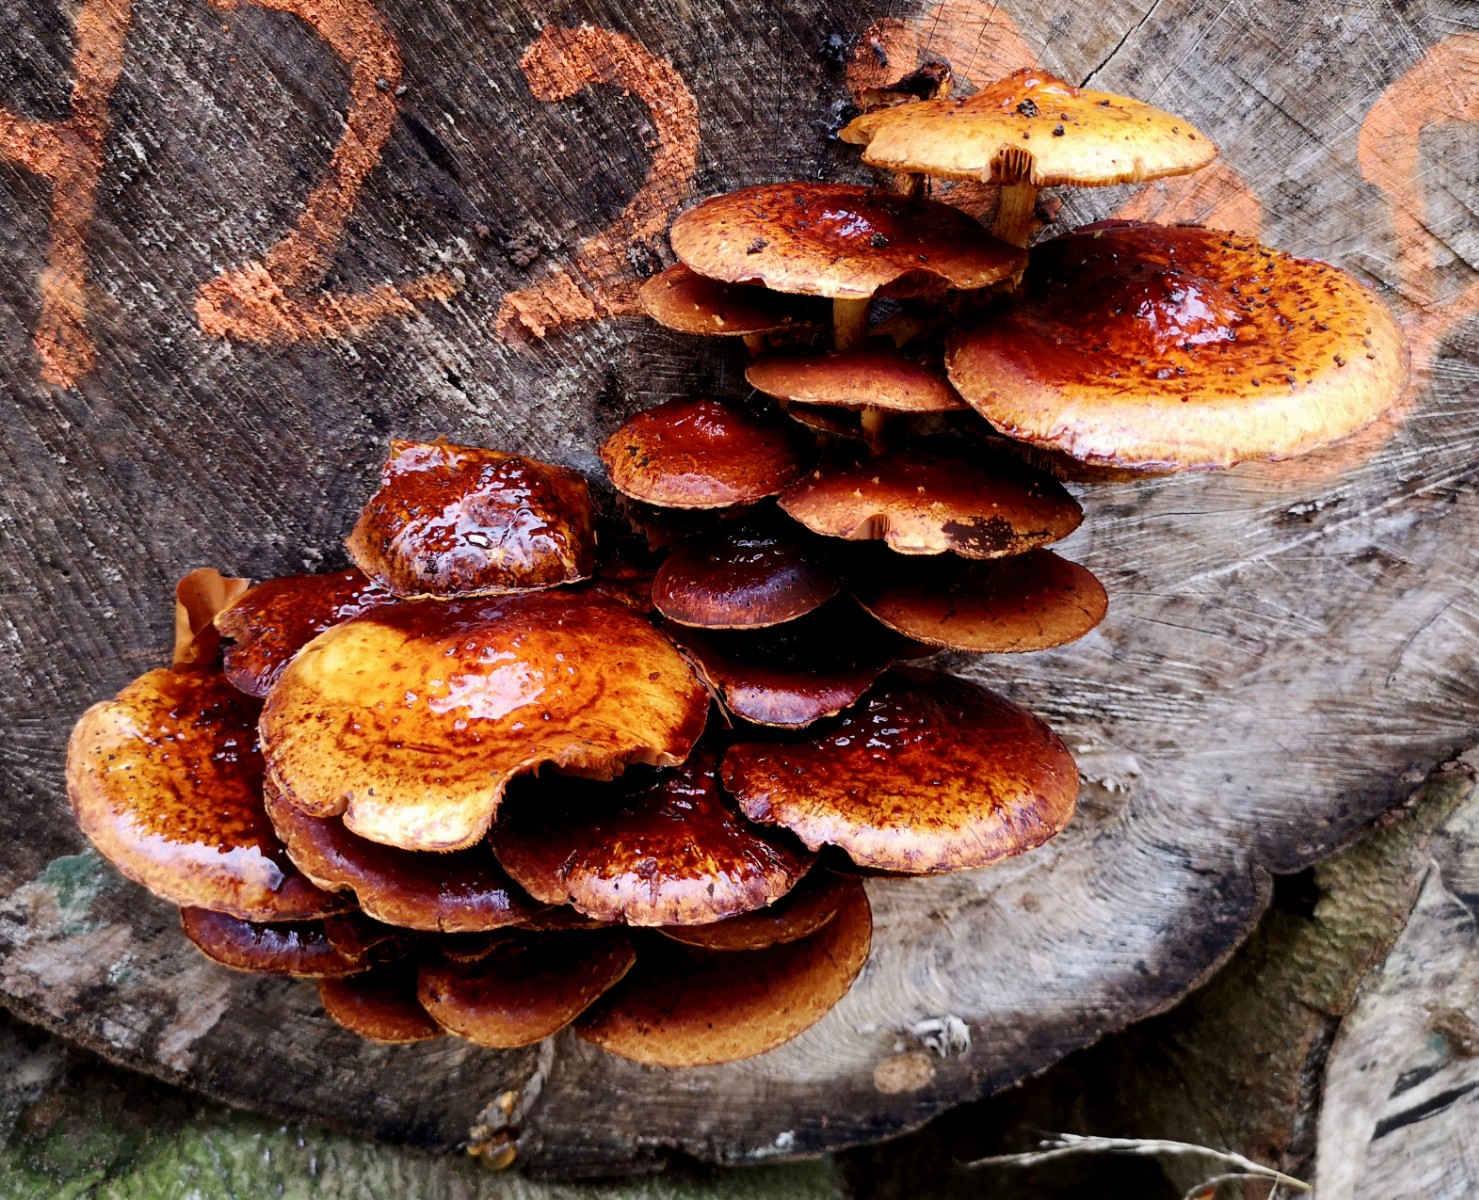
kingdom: Fungi
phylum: Basidiomycota
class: Agaricomycetes
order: Agaricales
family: Strophariaceae
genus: Pholiota
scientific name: Pholiota adiposa
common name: højtsiddende skælhat
